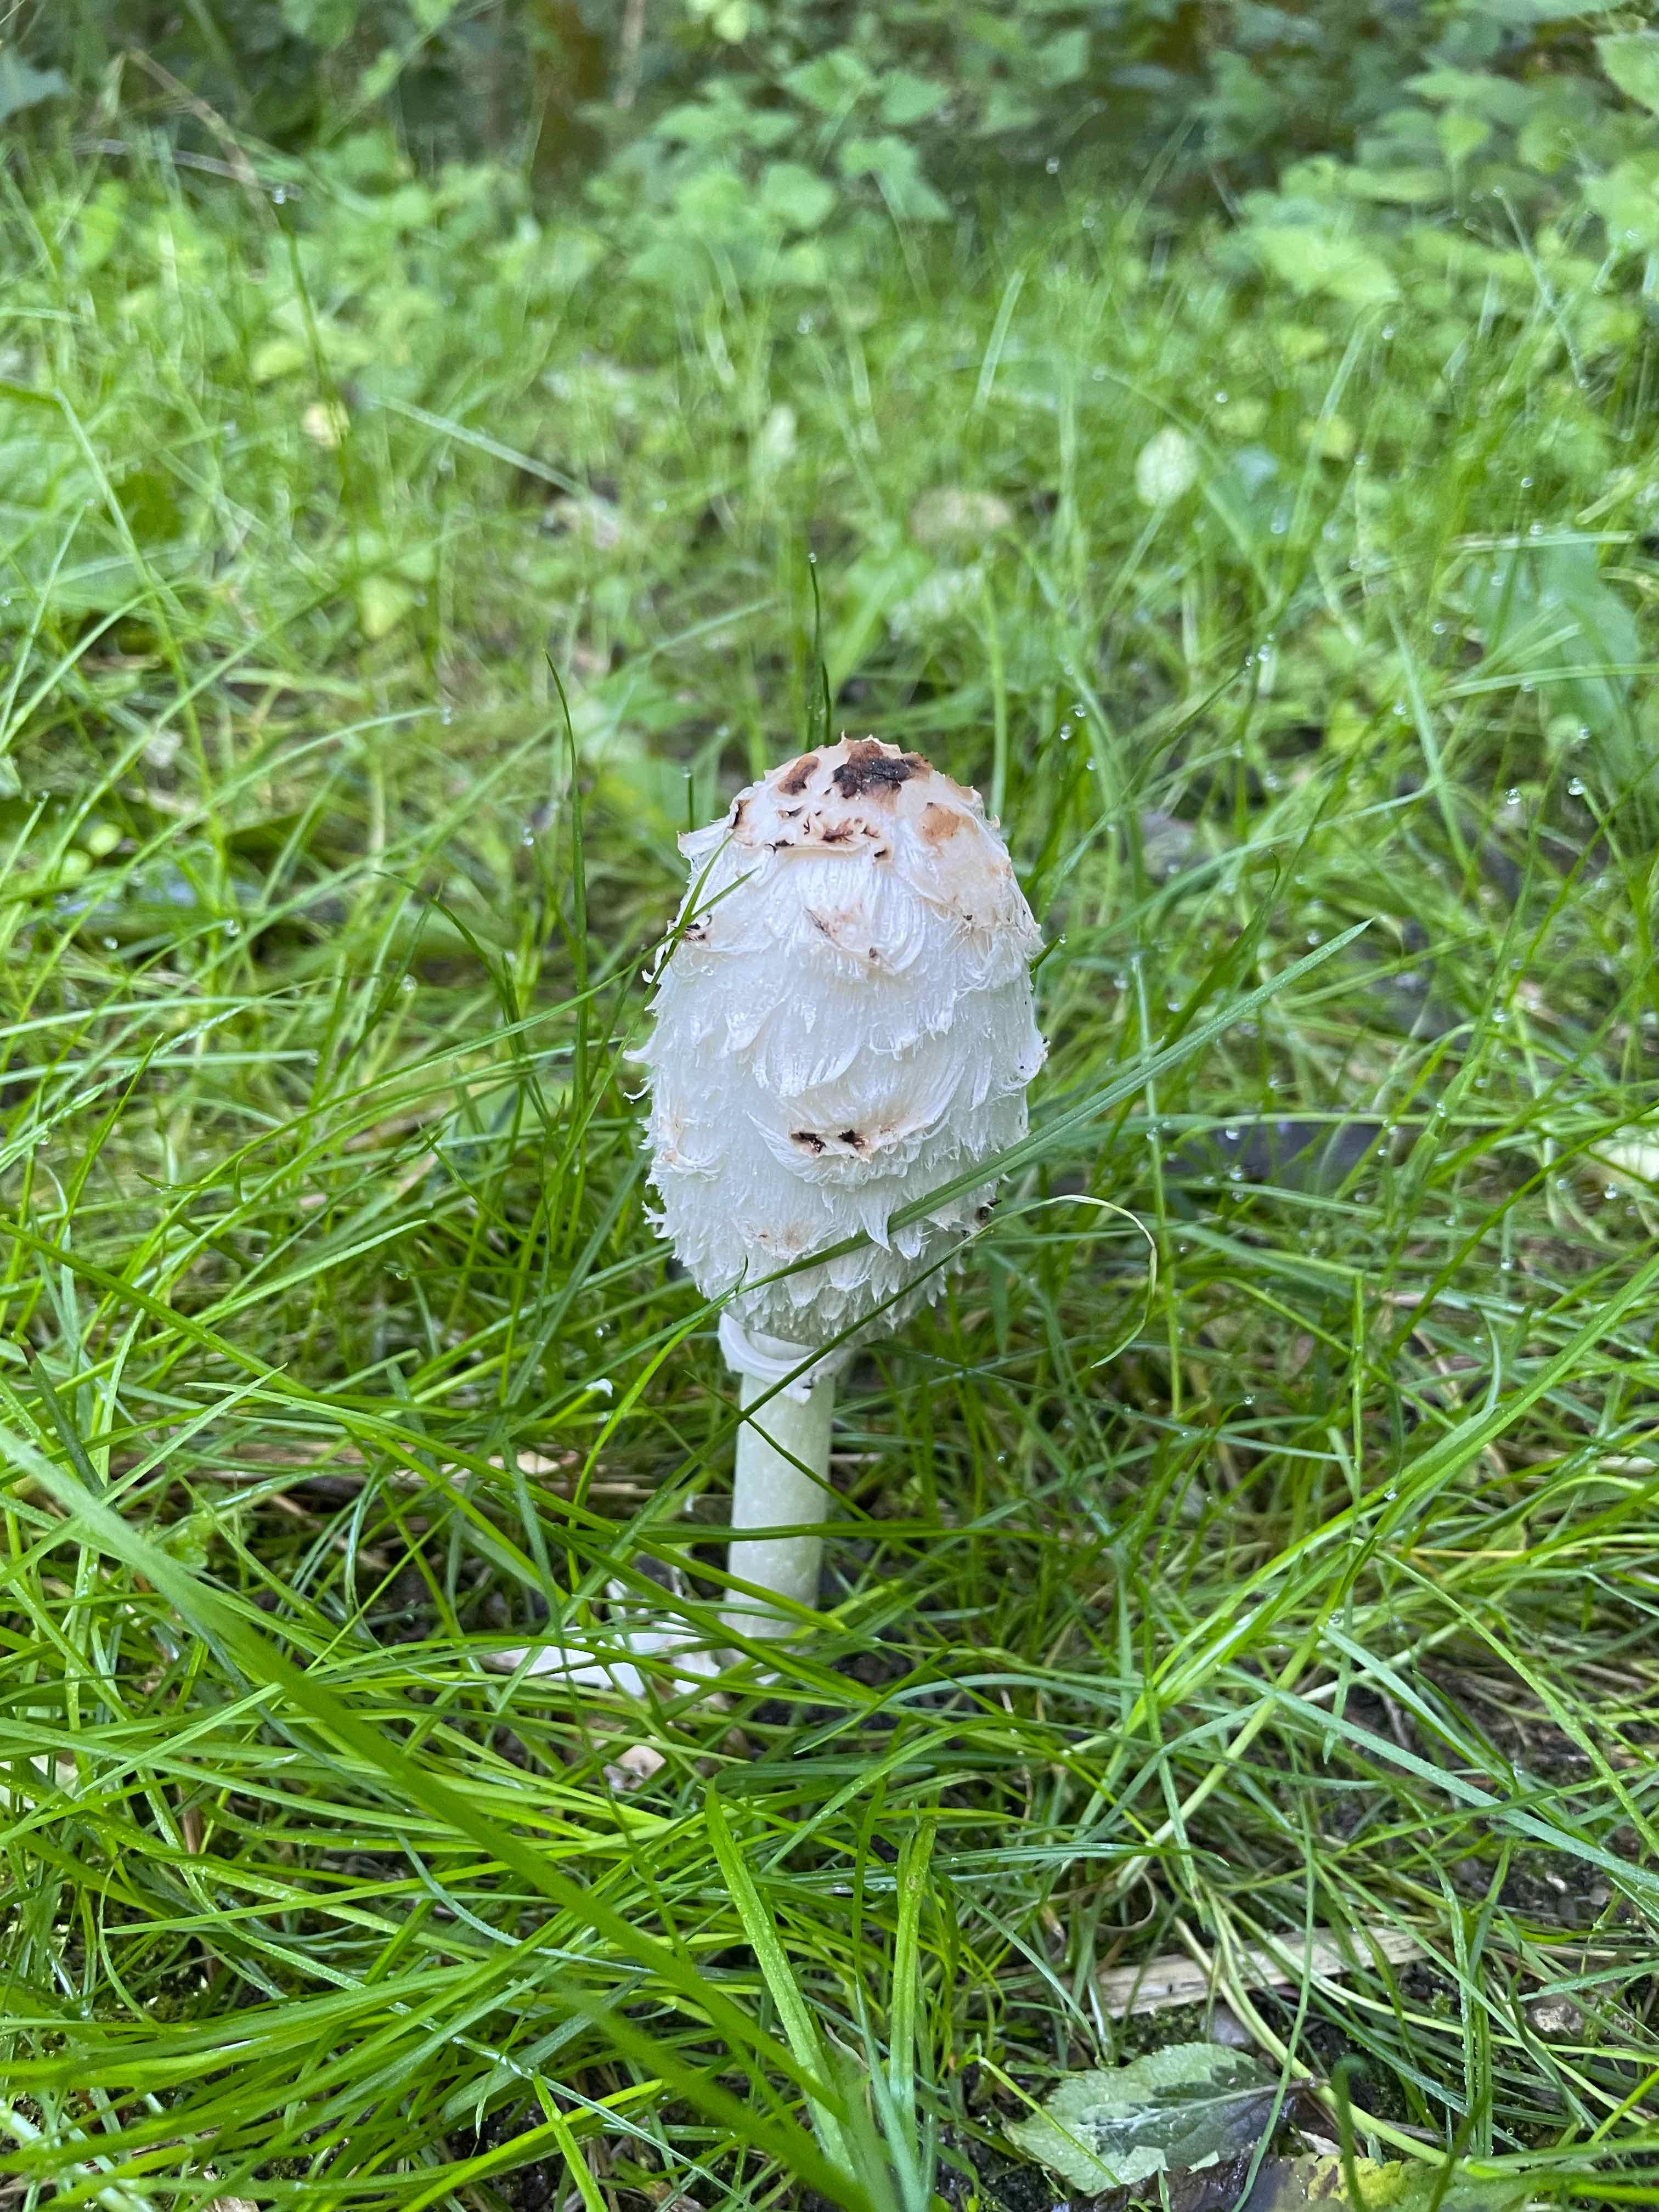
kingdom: Fungi
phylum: Basidiomycota
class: Agaricomycetes
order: Agaricales
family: Agaricaceae
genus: Coprinus
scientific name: Coprinus comatus
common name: stor parykhat
